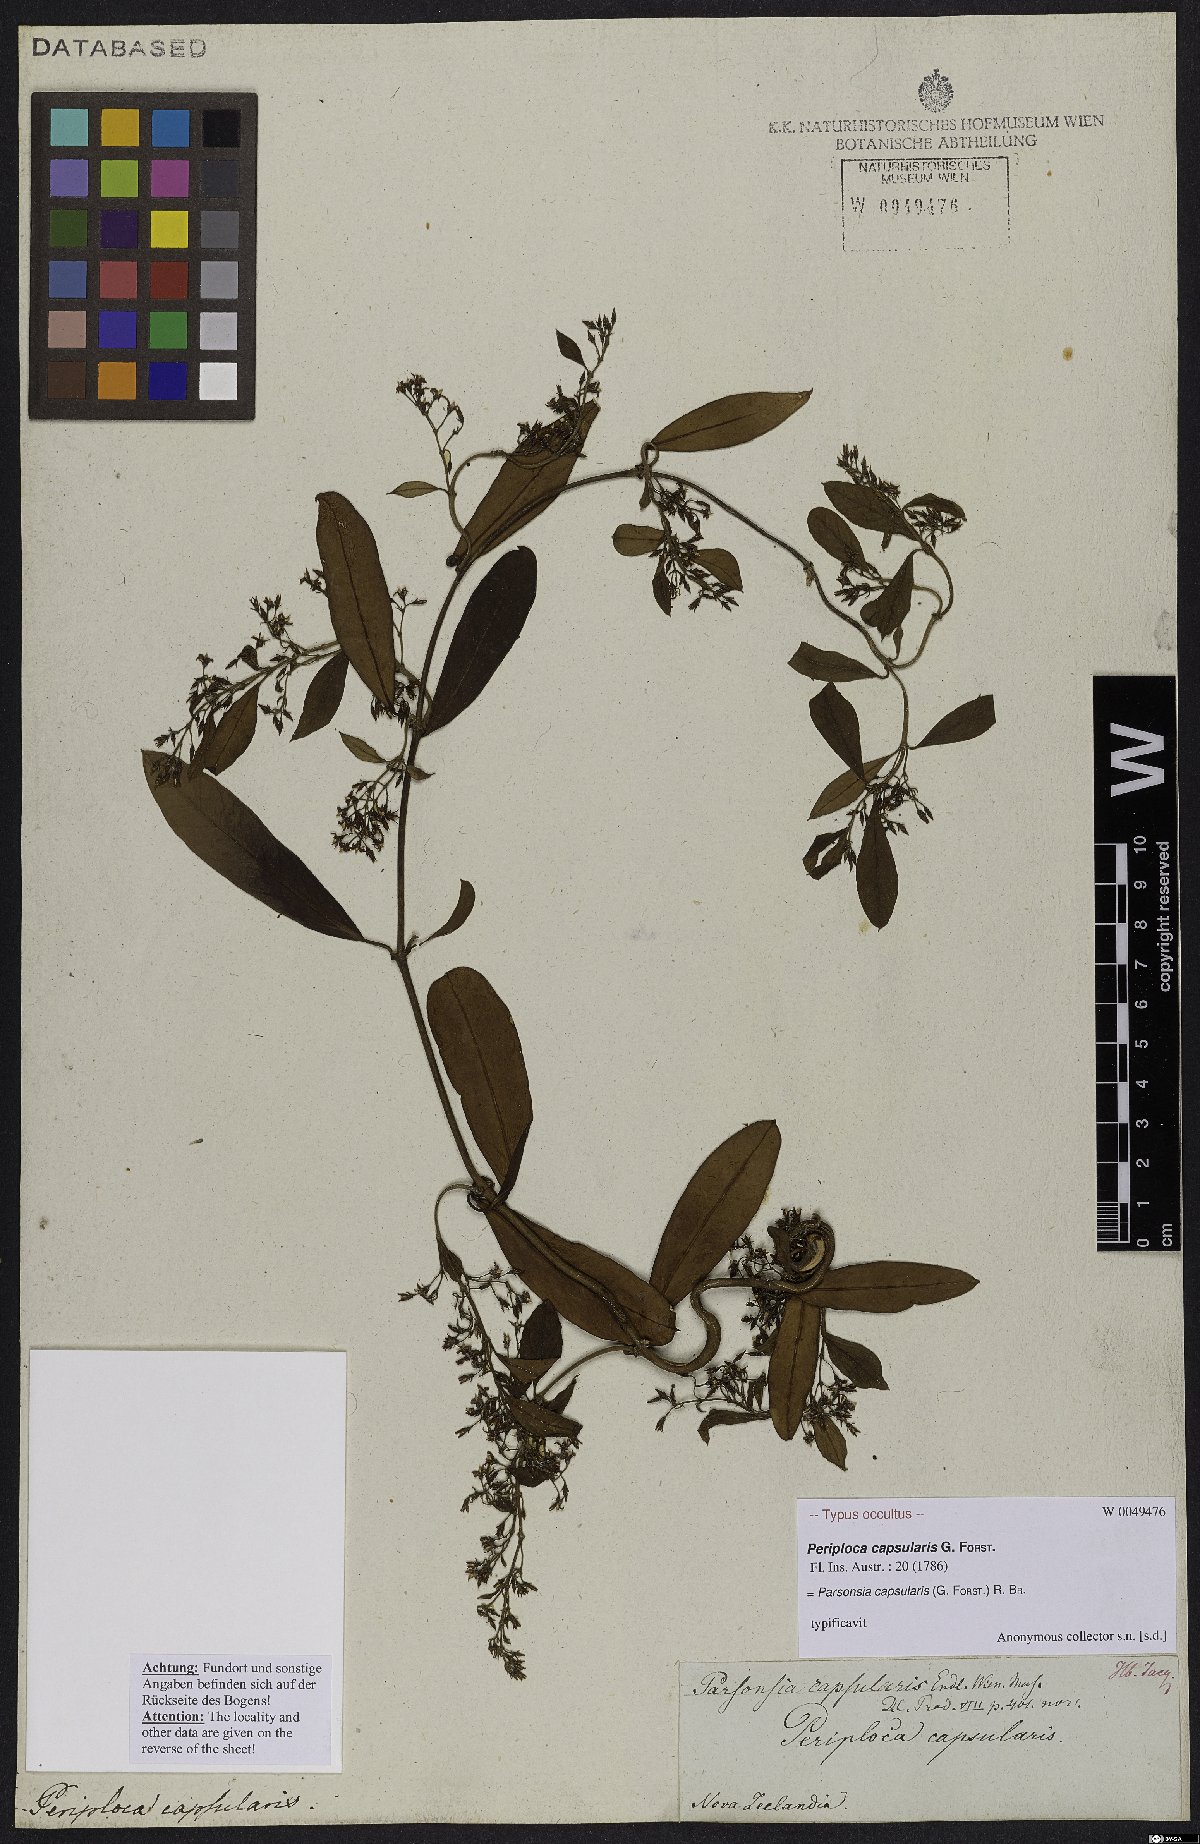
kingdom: Plantae
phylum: Tracheophyta
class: Magnoliopsida
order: Gentianales
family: Apocynaceae
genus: Parsonsia
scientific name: Parsonsia capsularis
